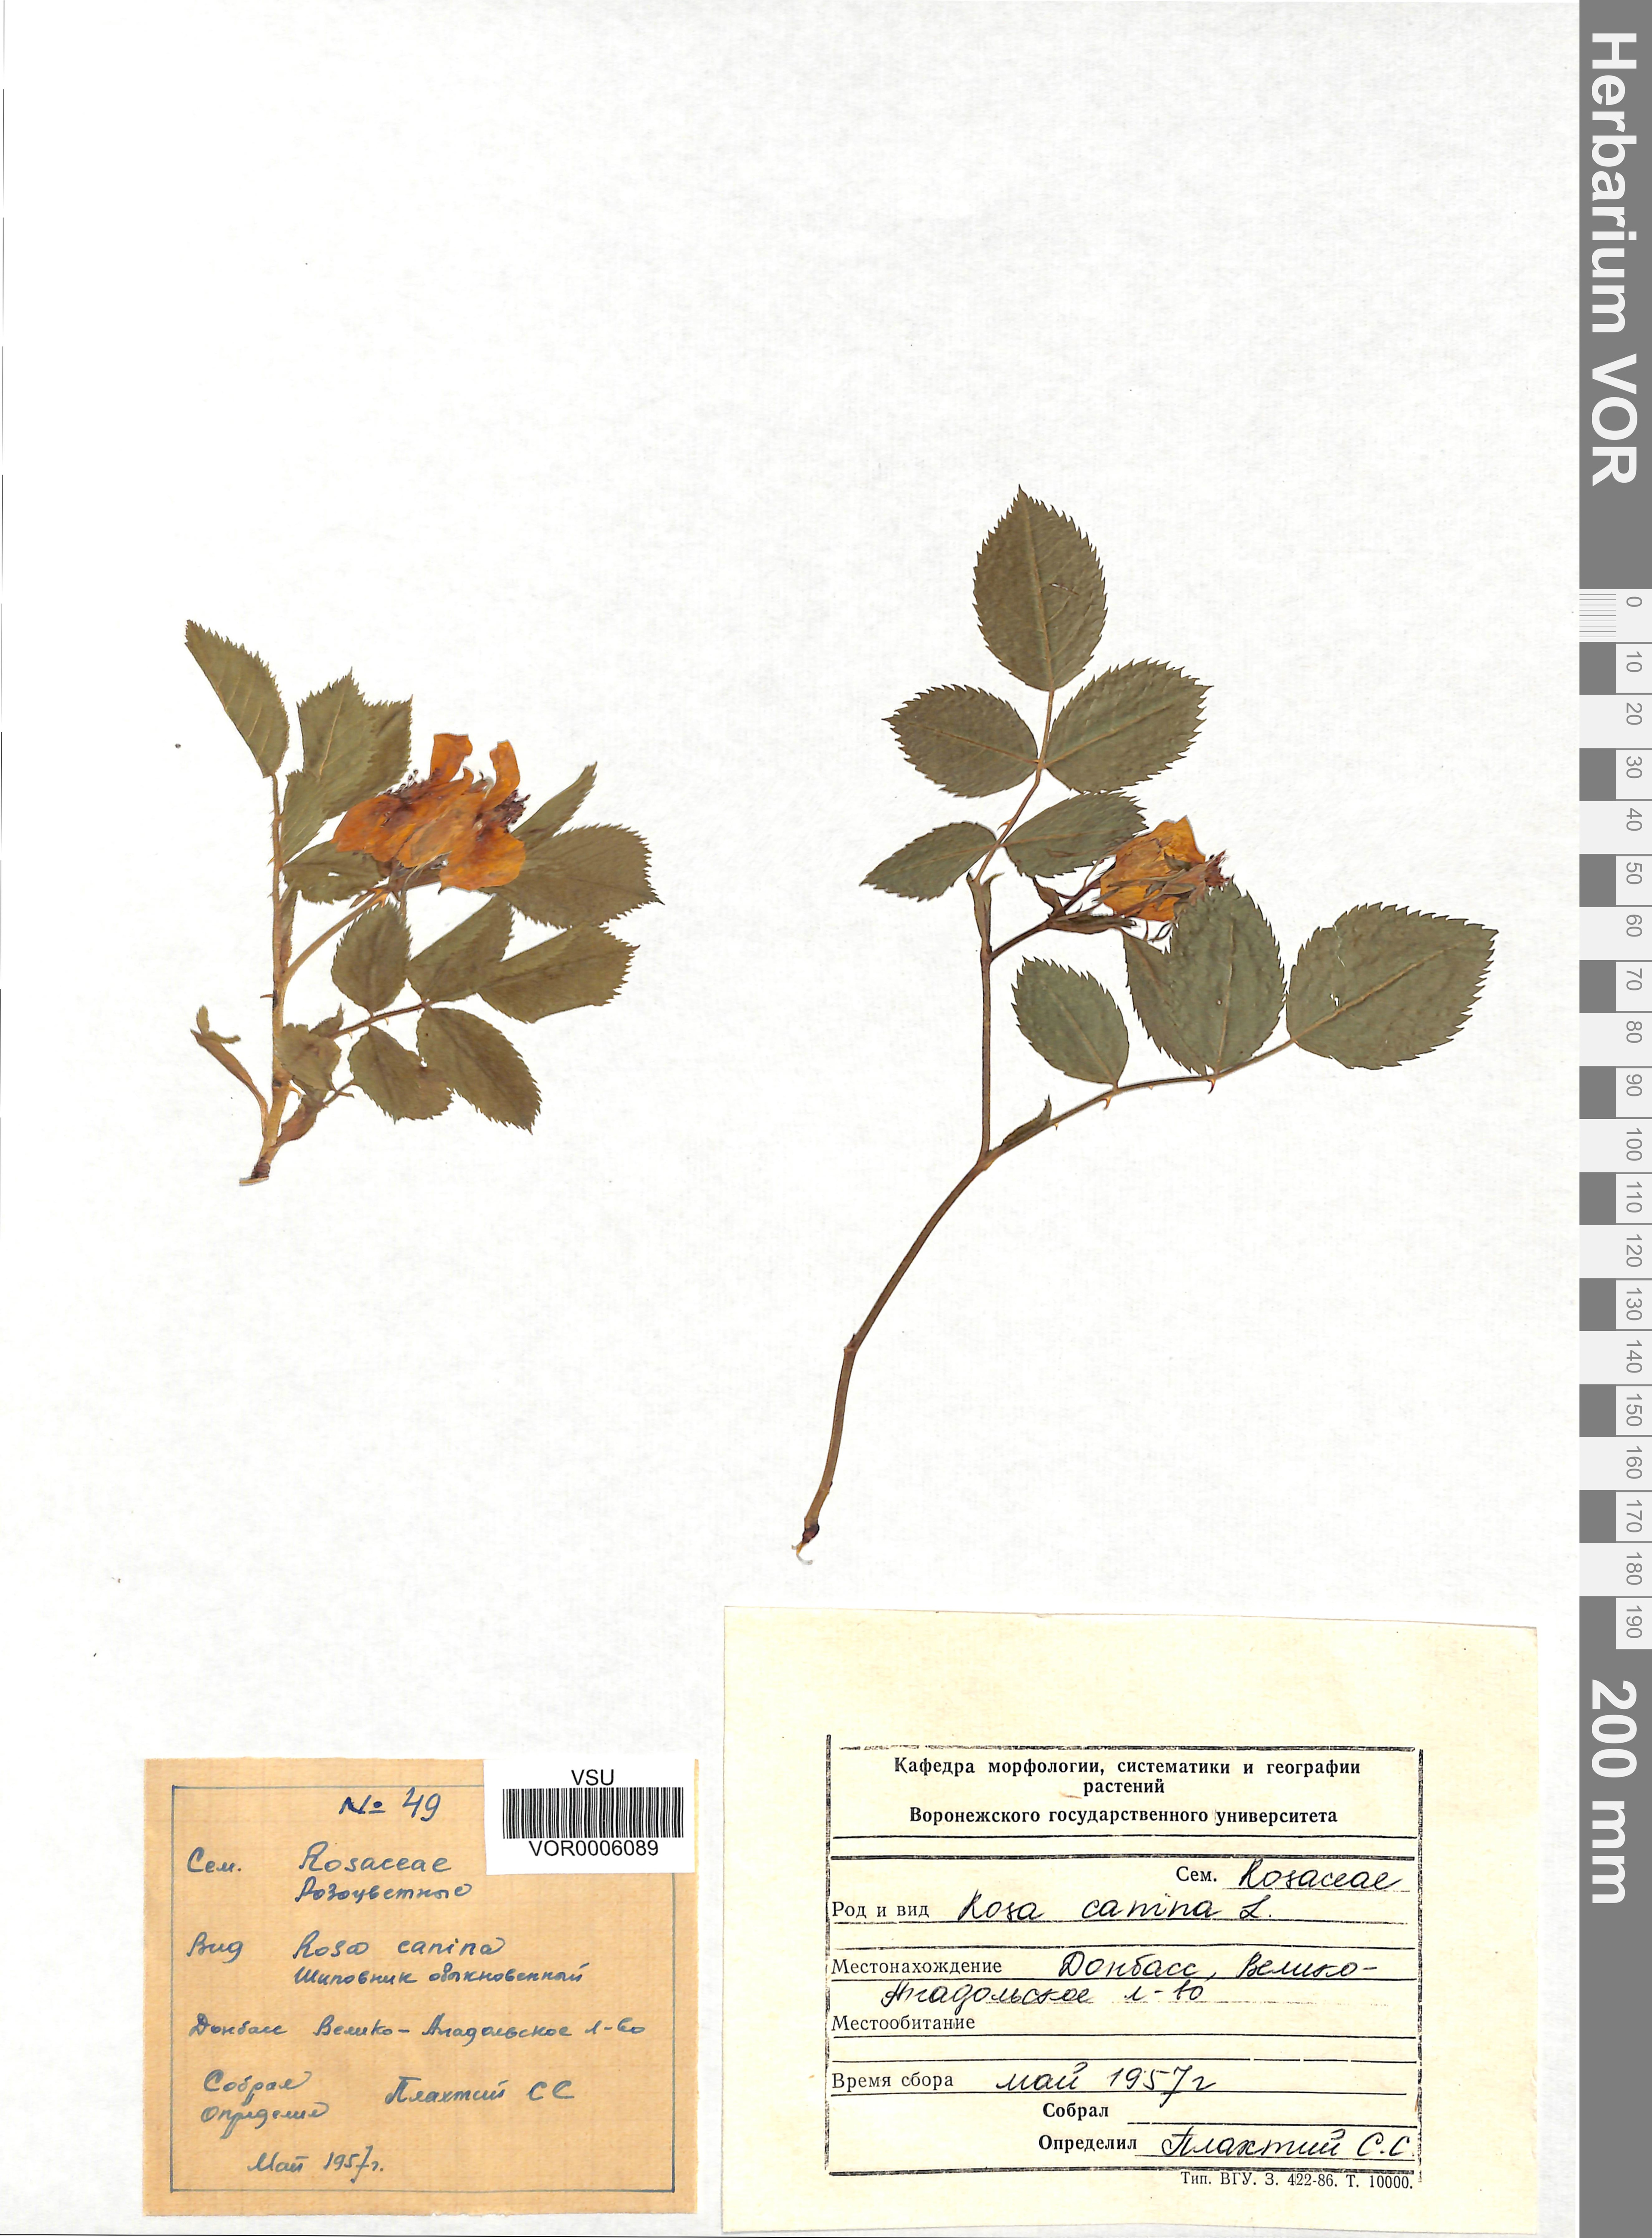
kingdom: Plantae
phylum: Tracheophyta
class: Magnoliopsida
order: Rosales
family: Rosaceae
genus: Rosa
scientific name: Rosa canina
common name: Dog rose
